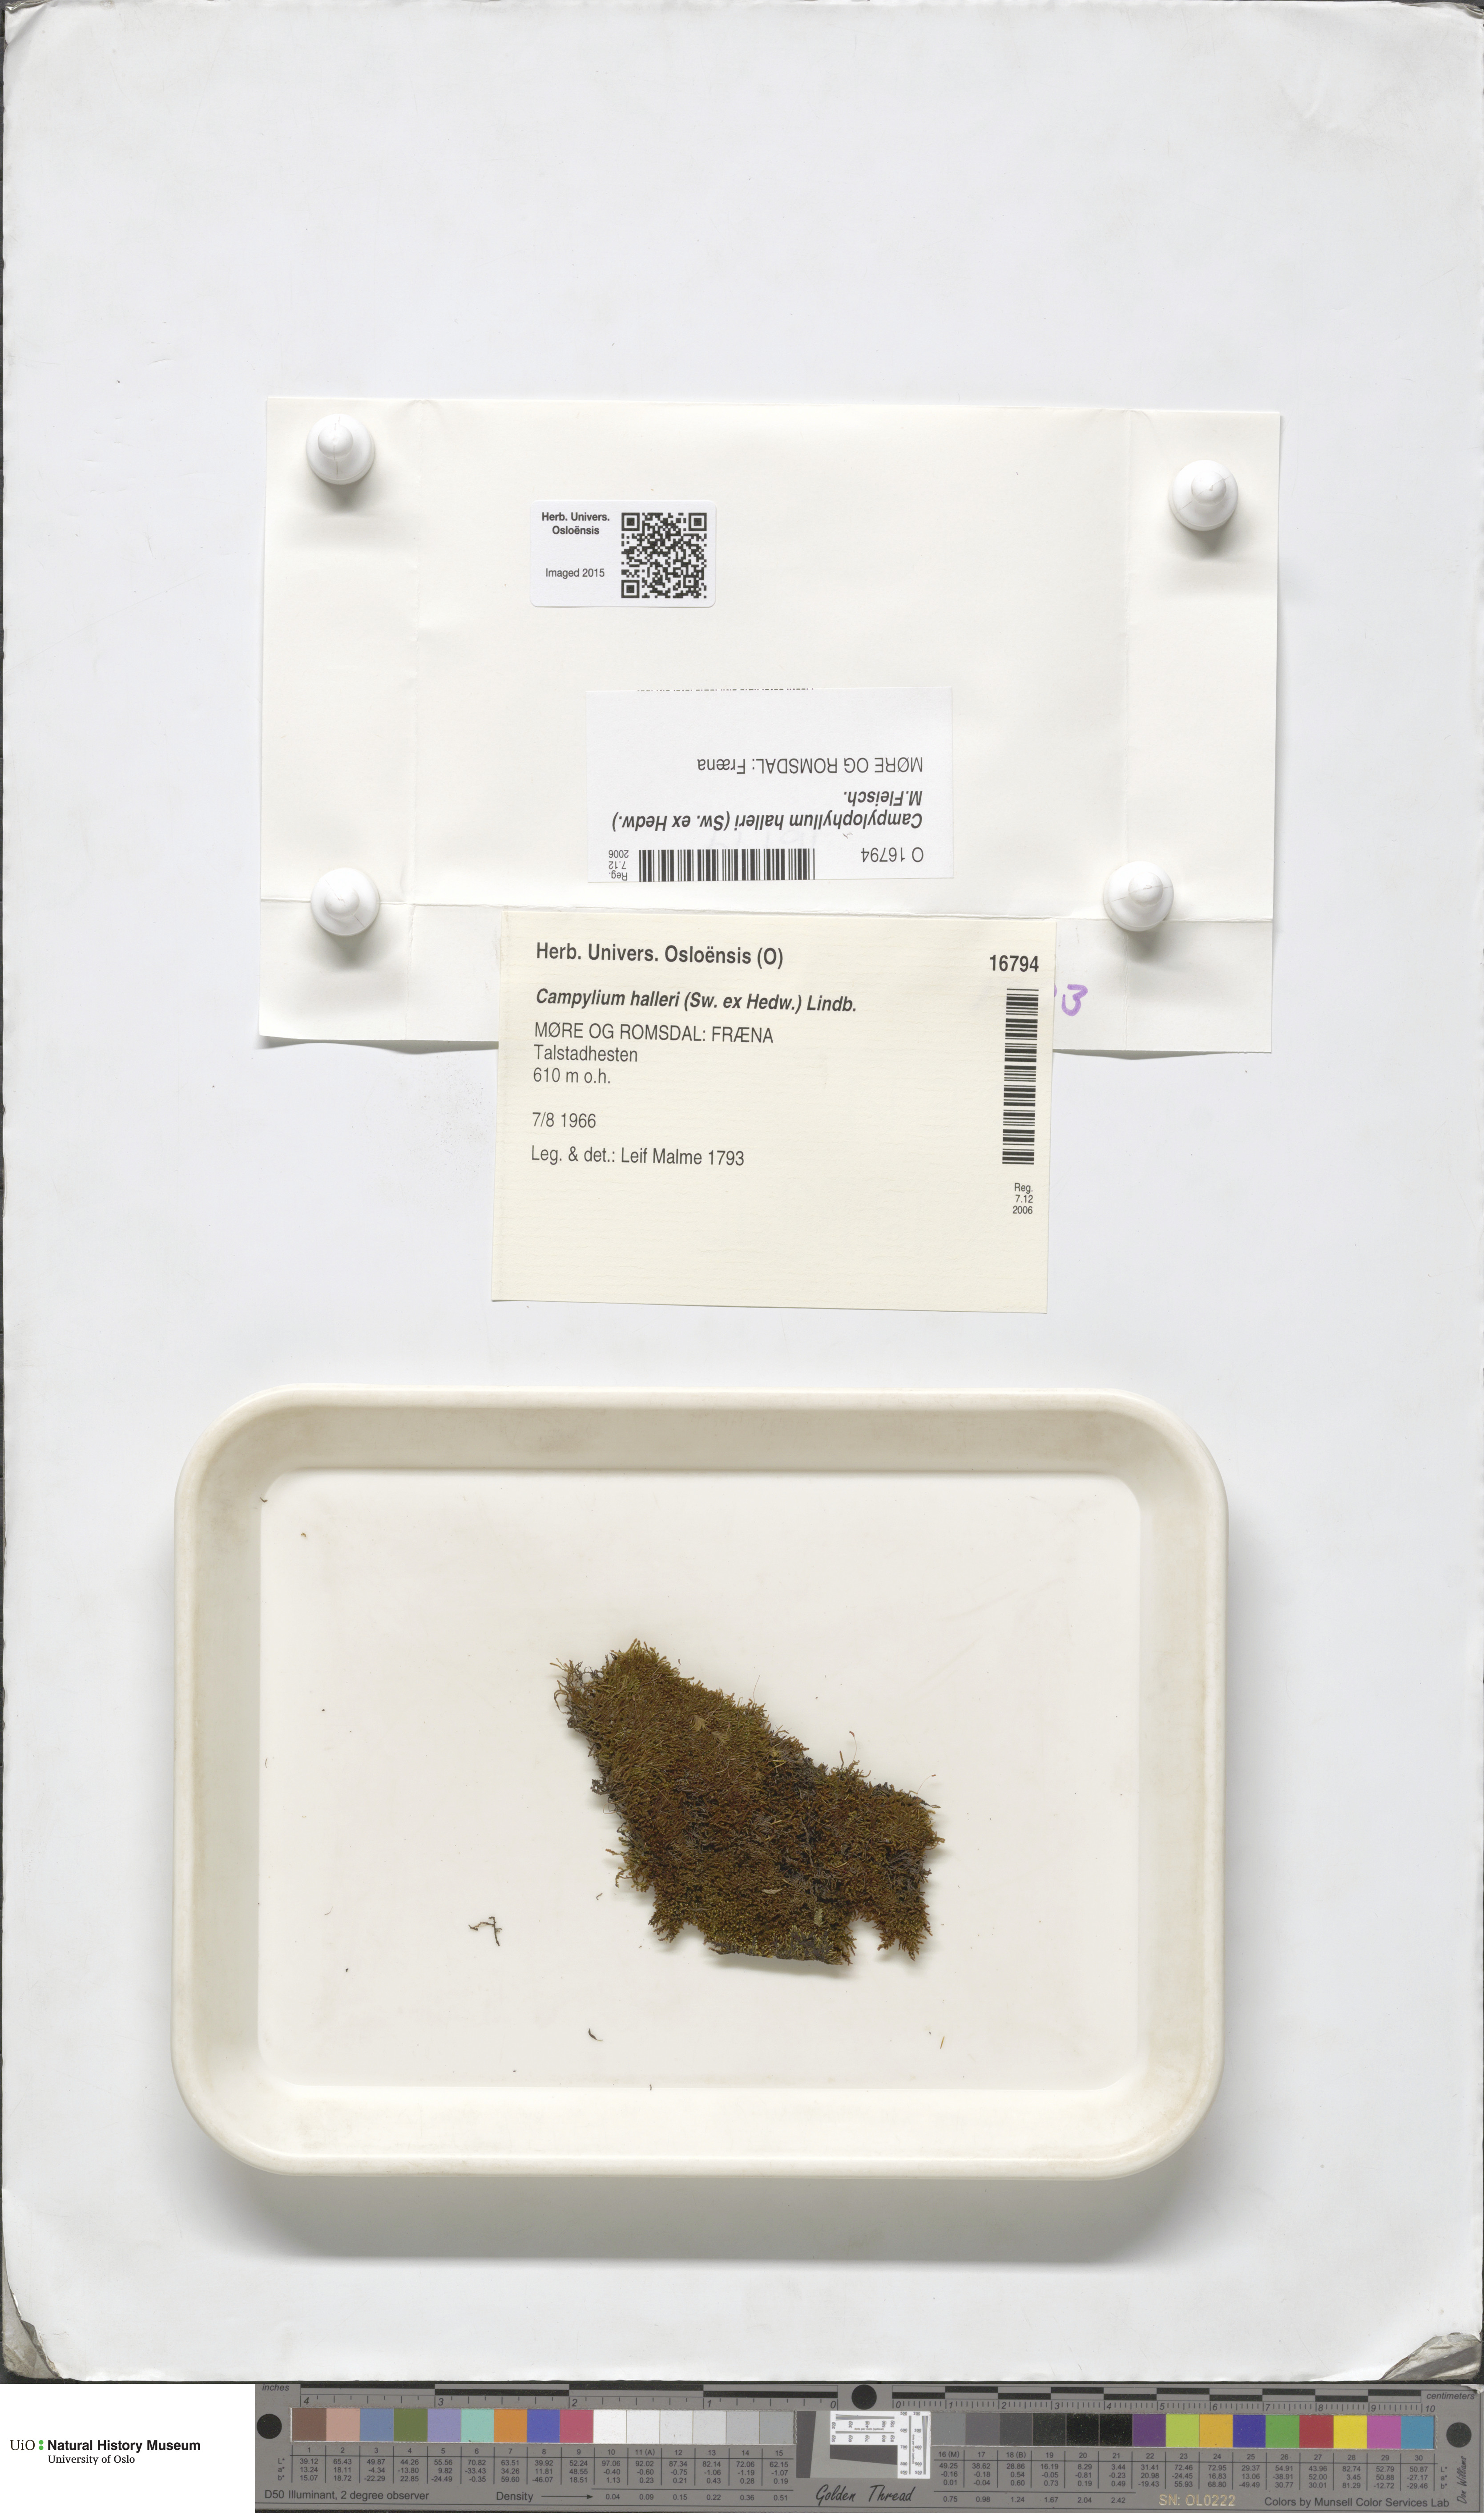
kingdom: Plantae
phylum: Bryophyta
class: Bryopsida
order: Hypnales
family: Amblystegiaceae
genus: Campylophyllum
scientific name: Campylophyllum halleri
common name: Haller's fine wet moss
